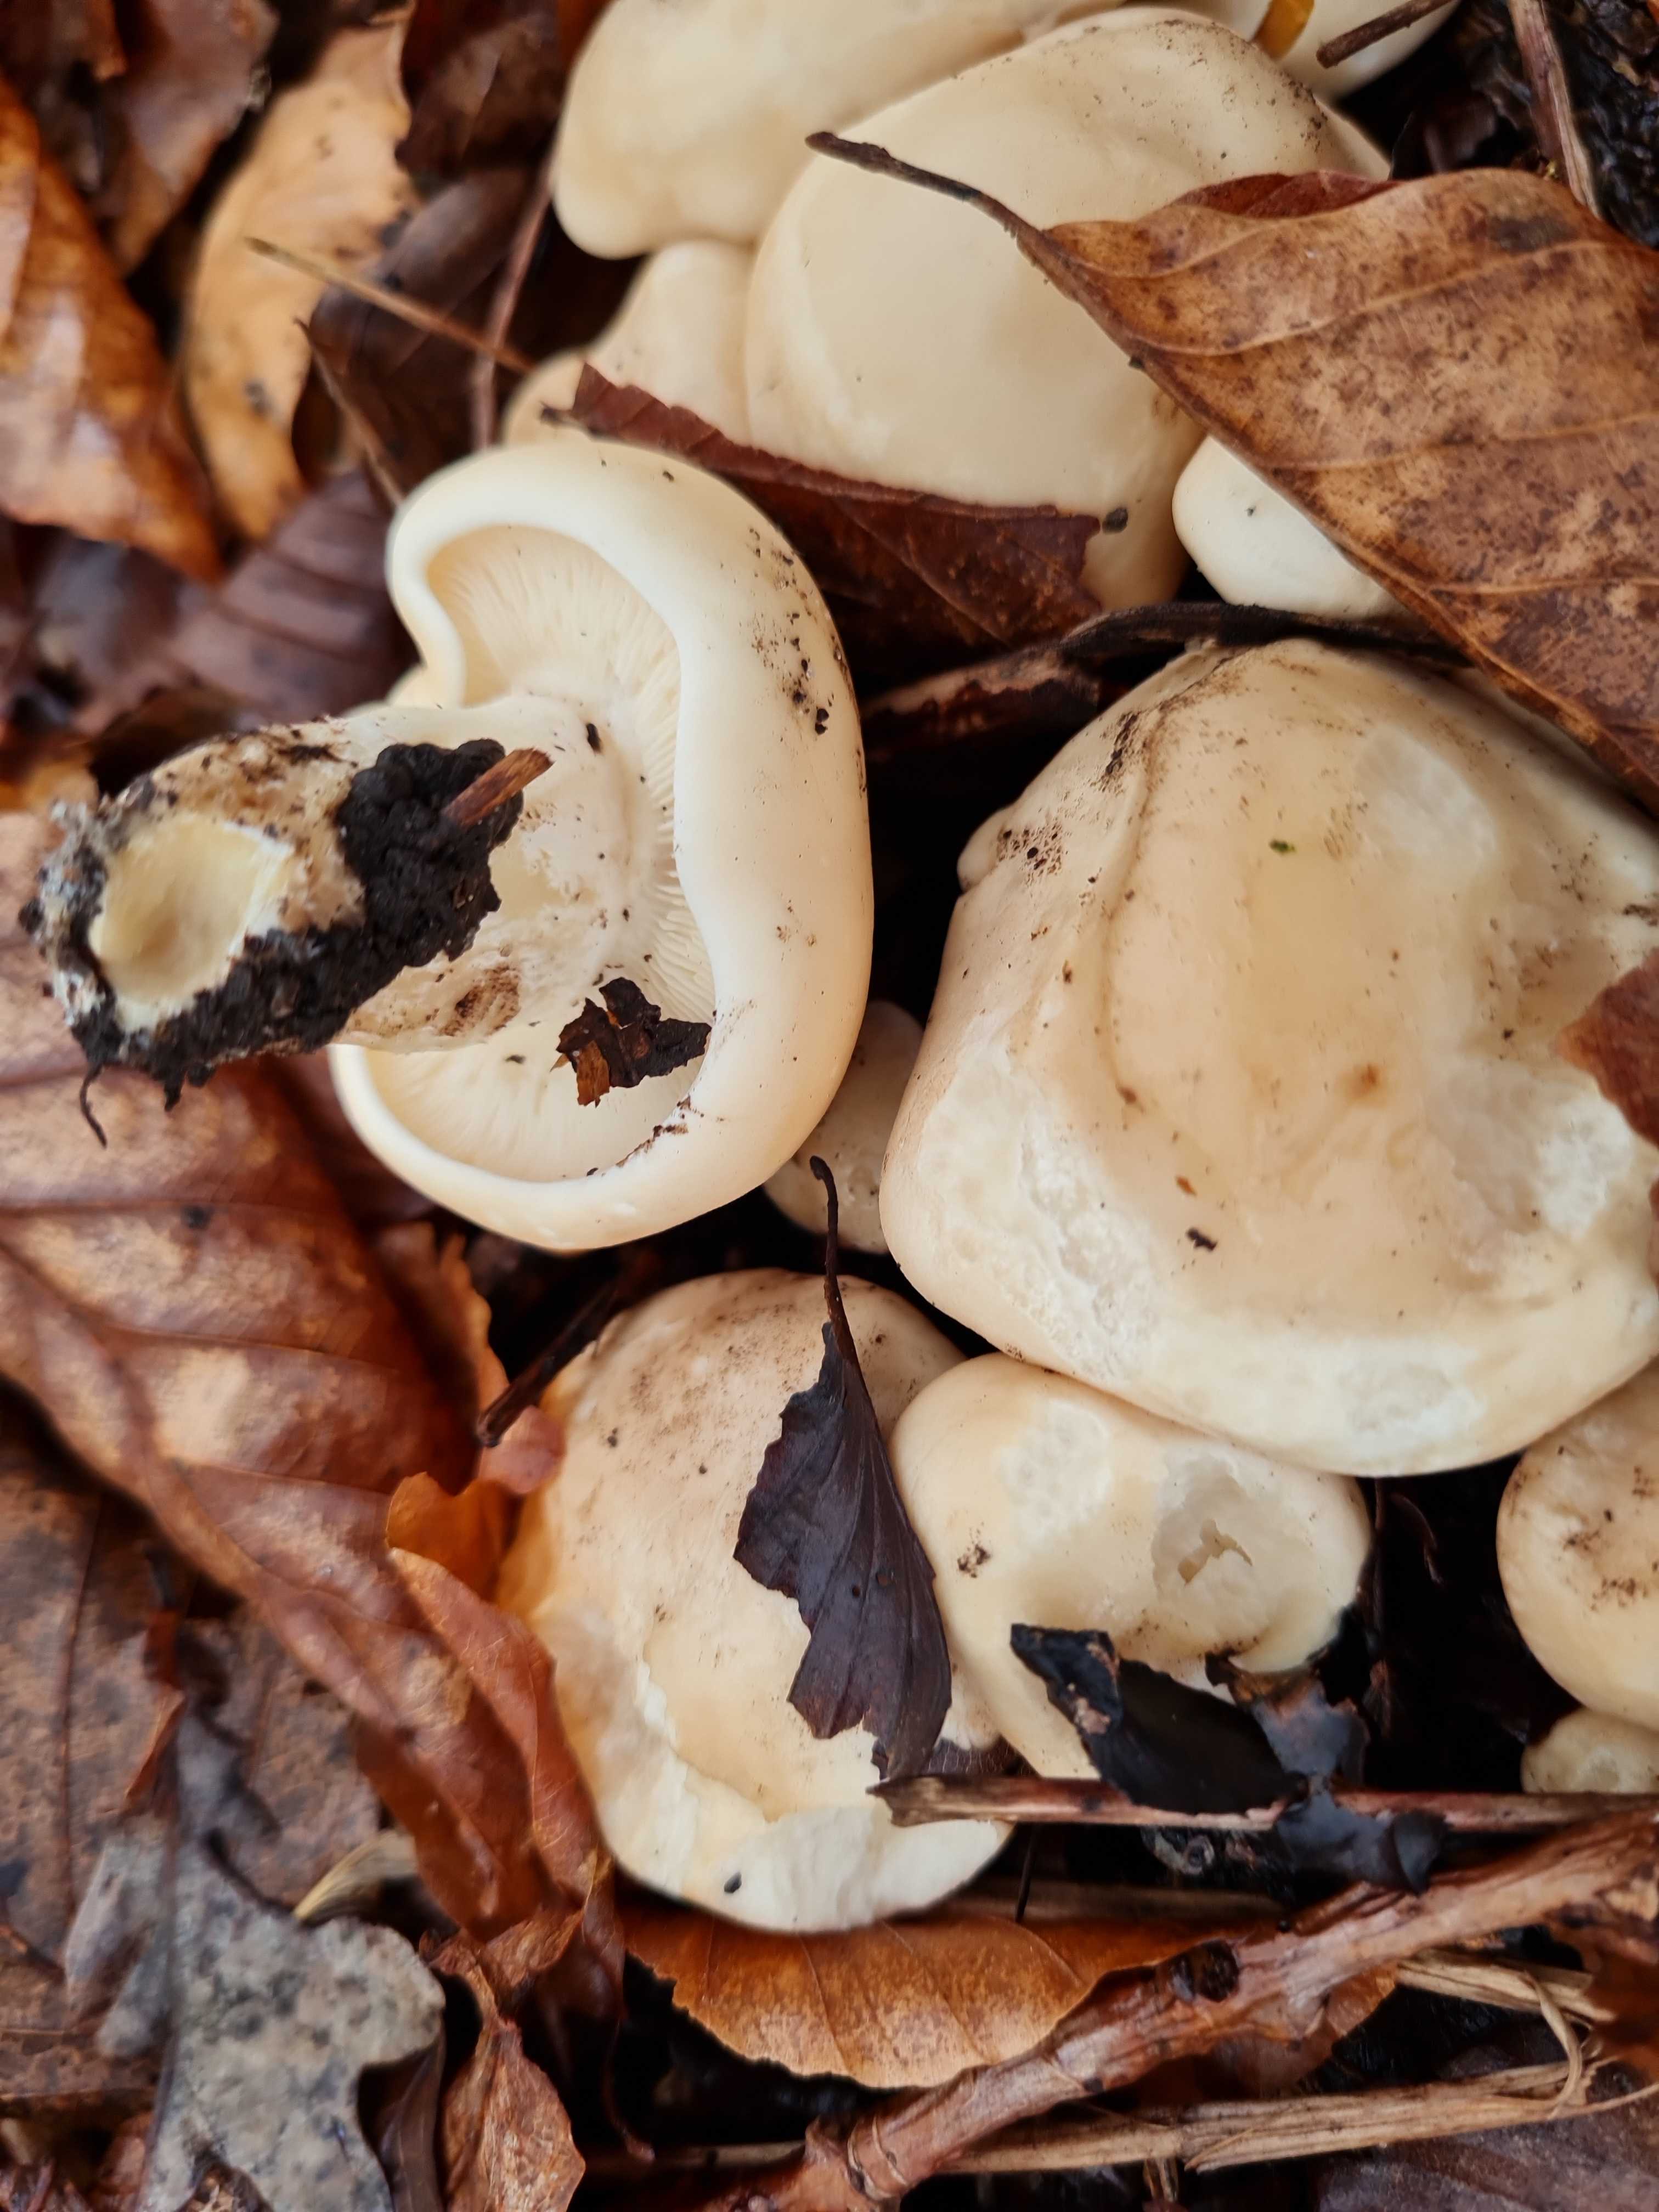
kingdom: Fungi
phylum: Basidiomycota
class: Agaricomycetes
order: Agaricales
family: Lyophyllaceae
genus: Calocybe
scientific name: Calocybe gambosa
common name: vårmusseron
